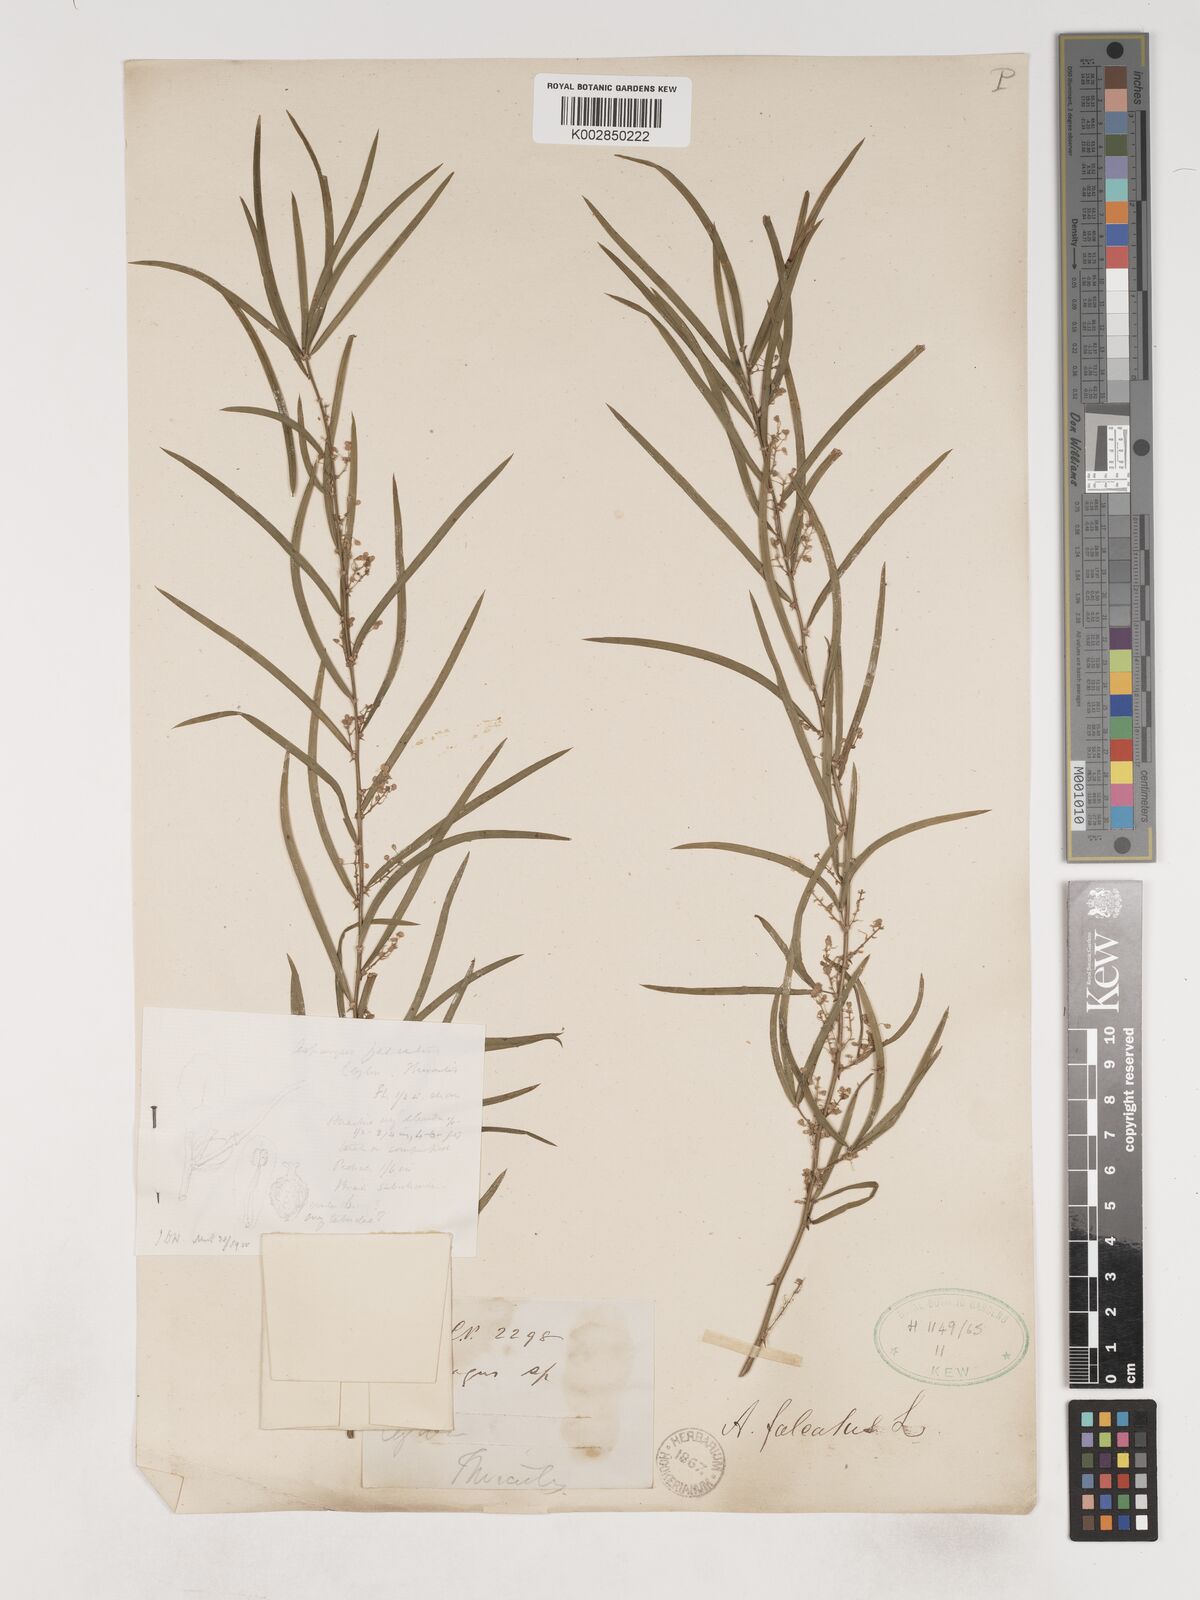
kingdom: Plantae
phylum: Tracheophyta
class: Liliopsida
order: Asparagales
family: Asparagaceae
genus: Asparagus
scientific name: Asparagus falcatus
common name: Asparagus
